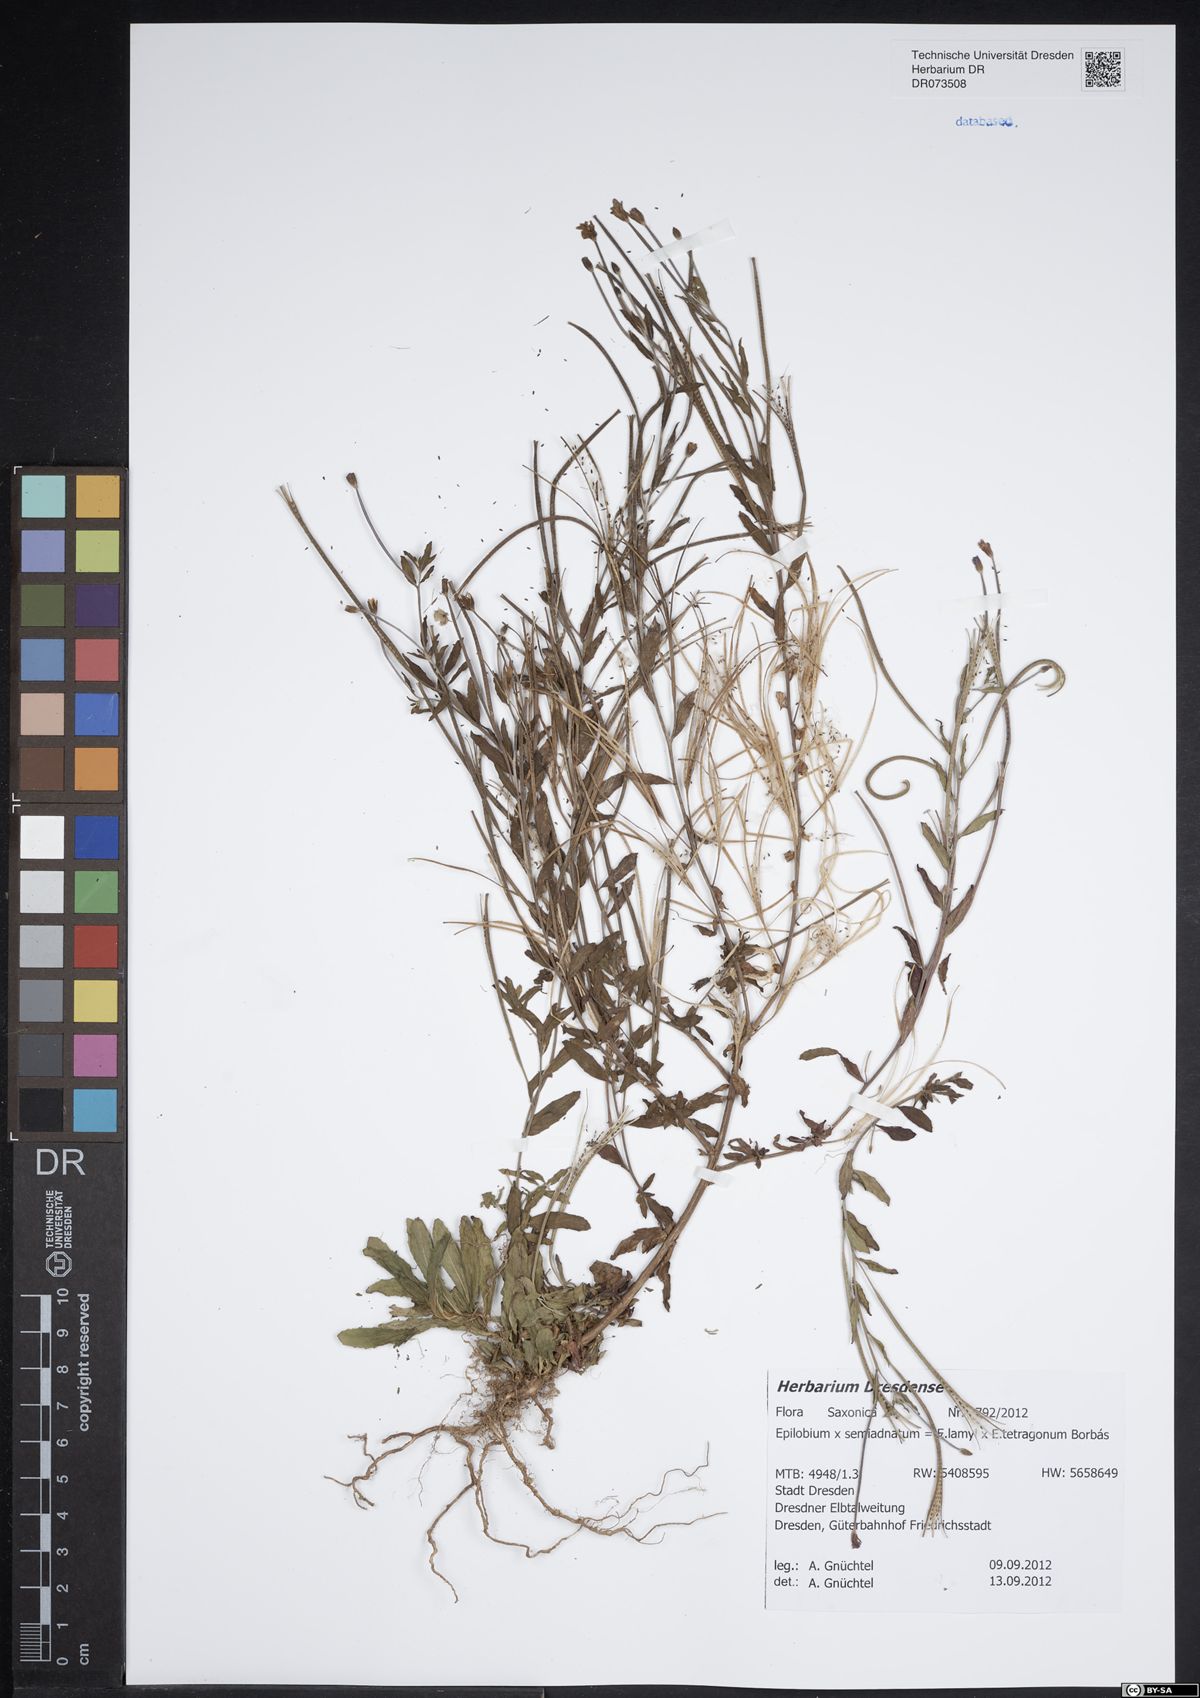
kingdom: Plantae
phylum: Tracheophyta
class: Magnoliopsida
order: Myrtales
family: Onagraceae
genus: Epilobium
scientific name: Epilobium semiadnatum
